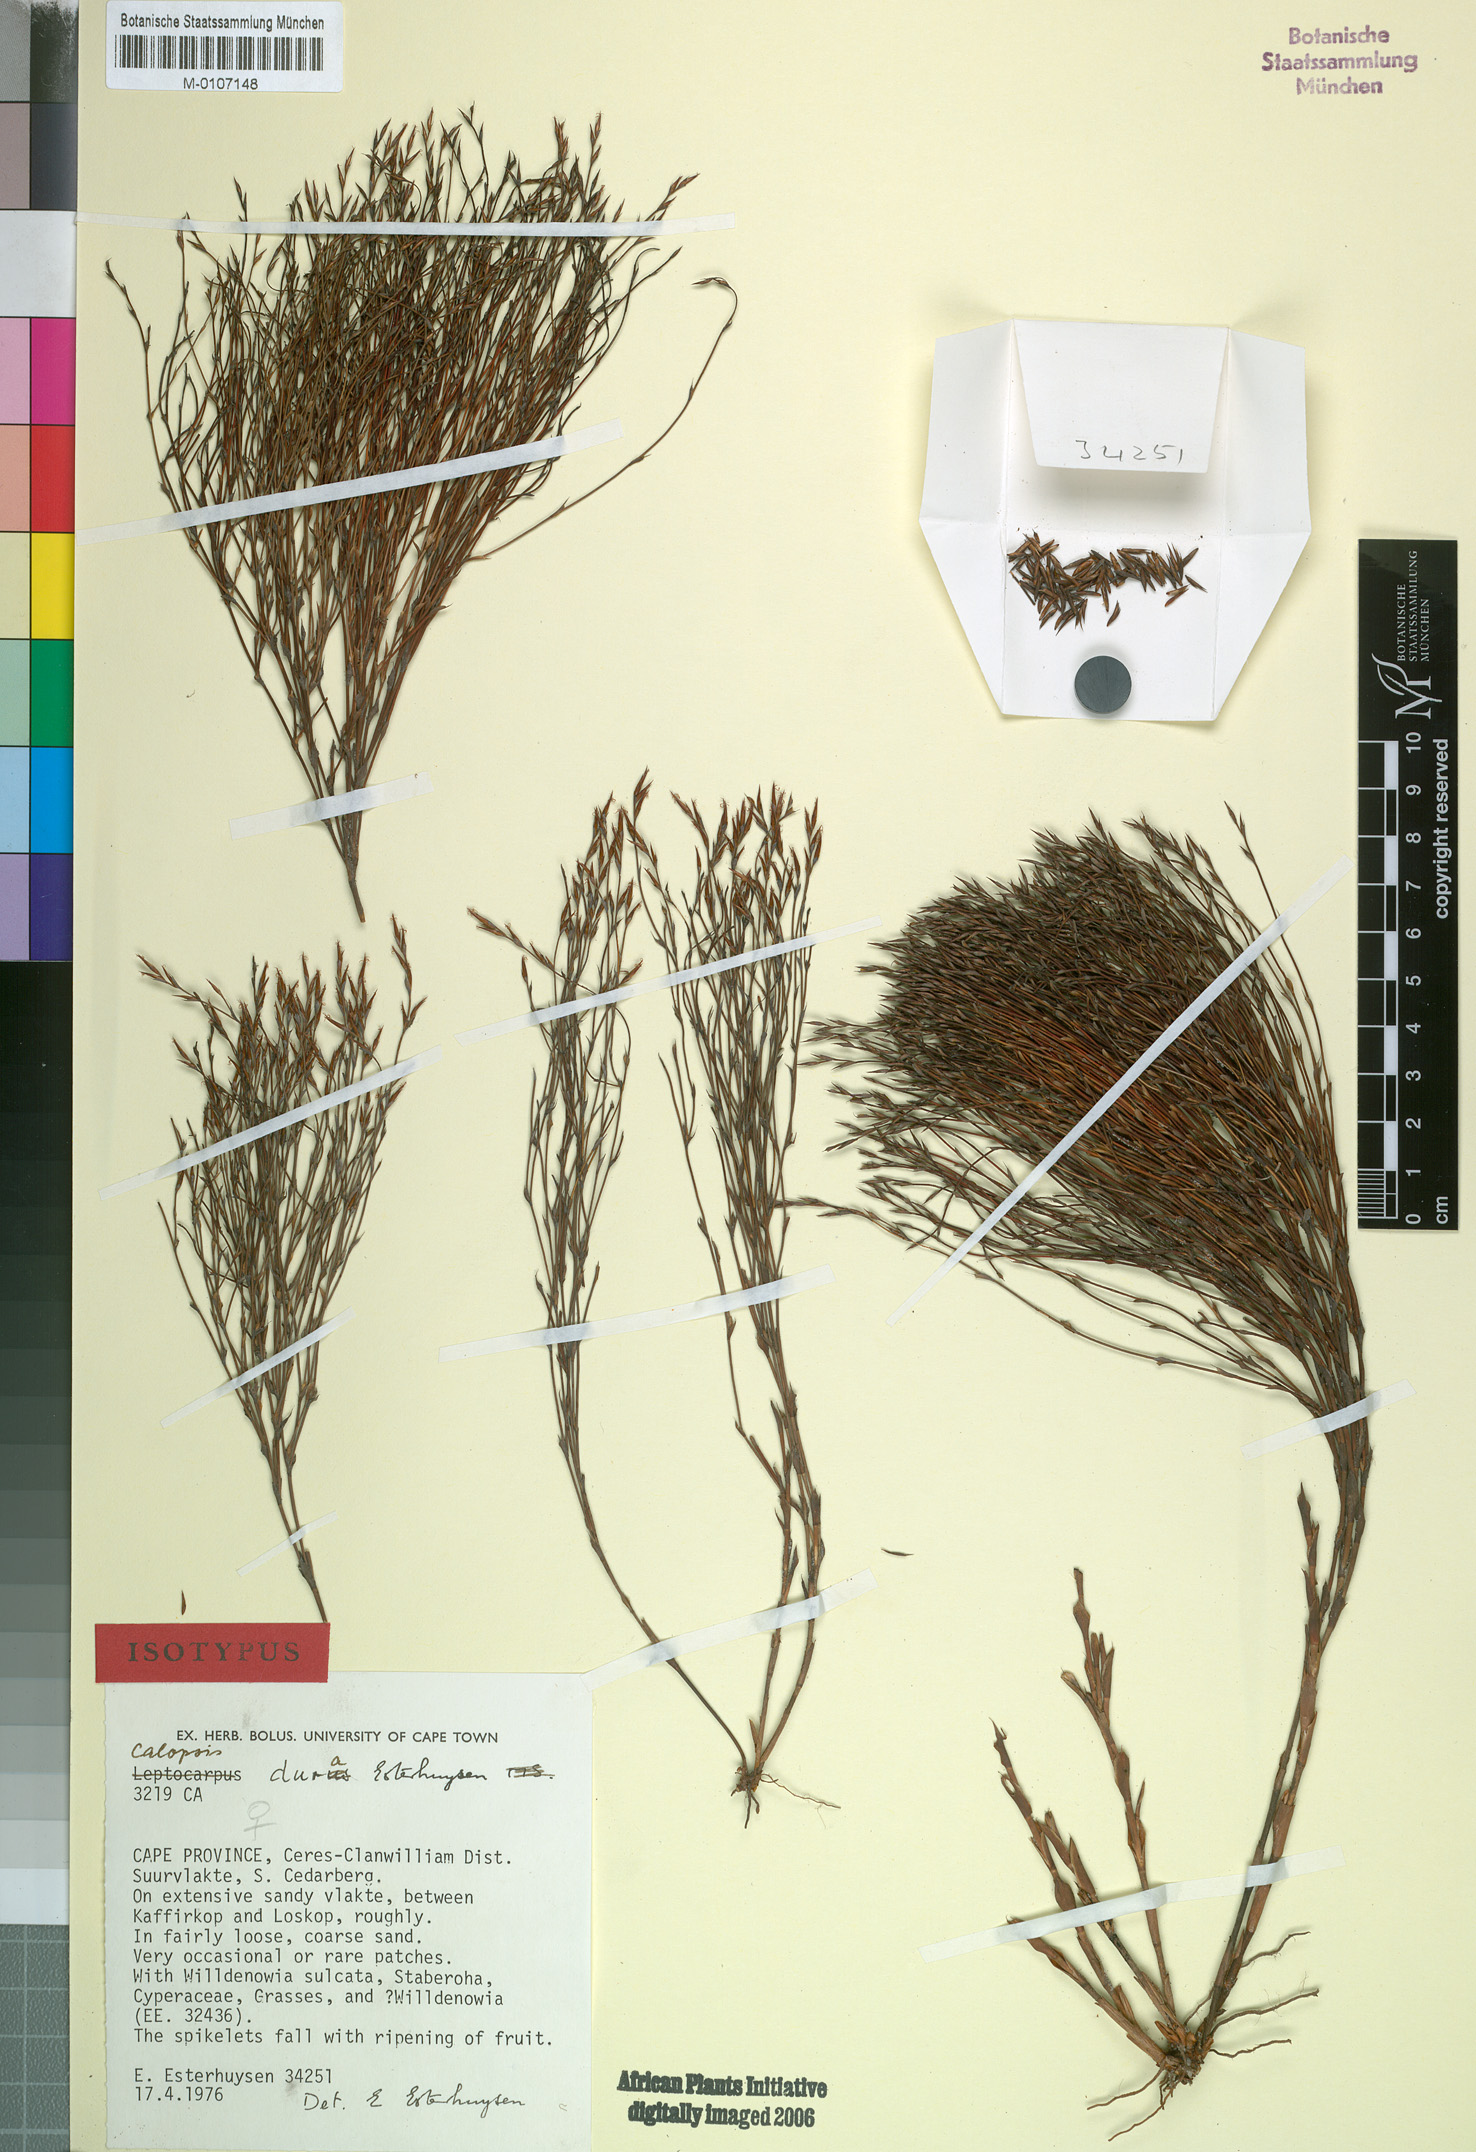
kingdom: Plantae
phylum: Tracheophyta
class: Liliopsida
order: Poales
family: Restionaceae
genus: Restio
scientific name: Restio durus
